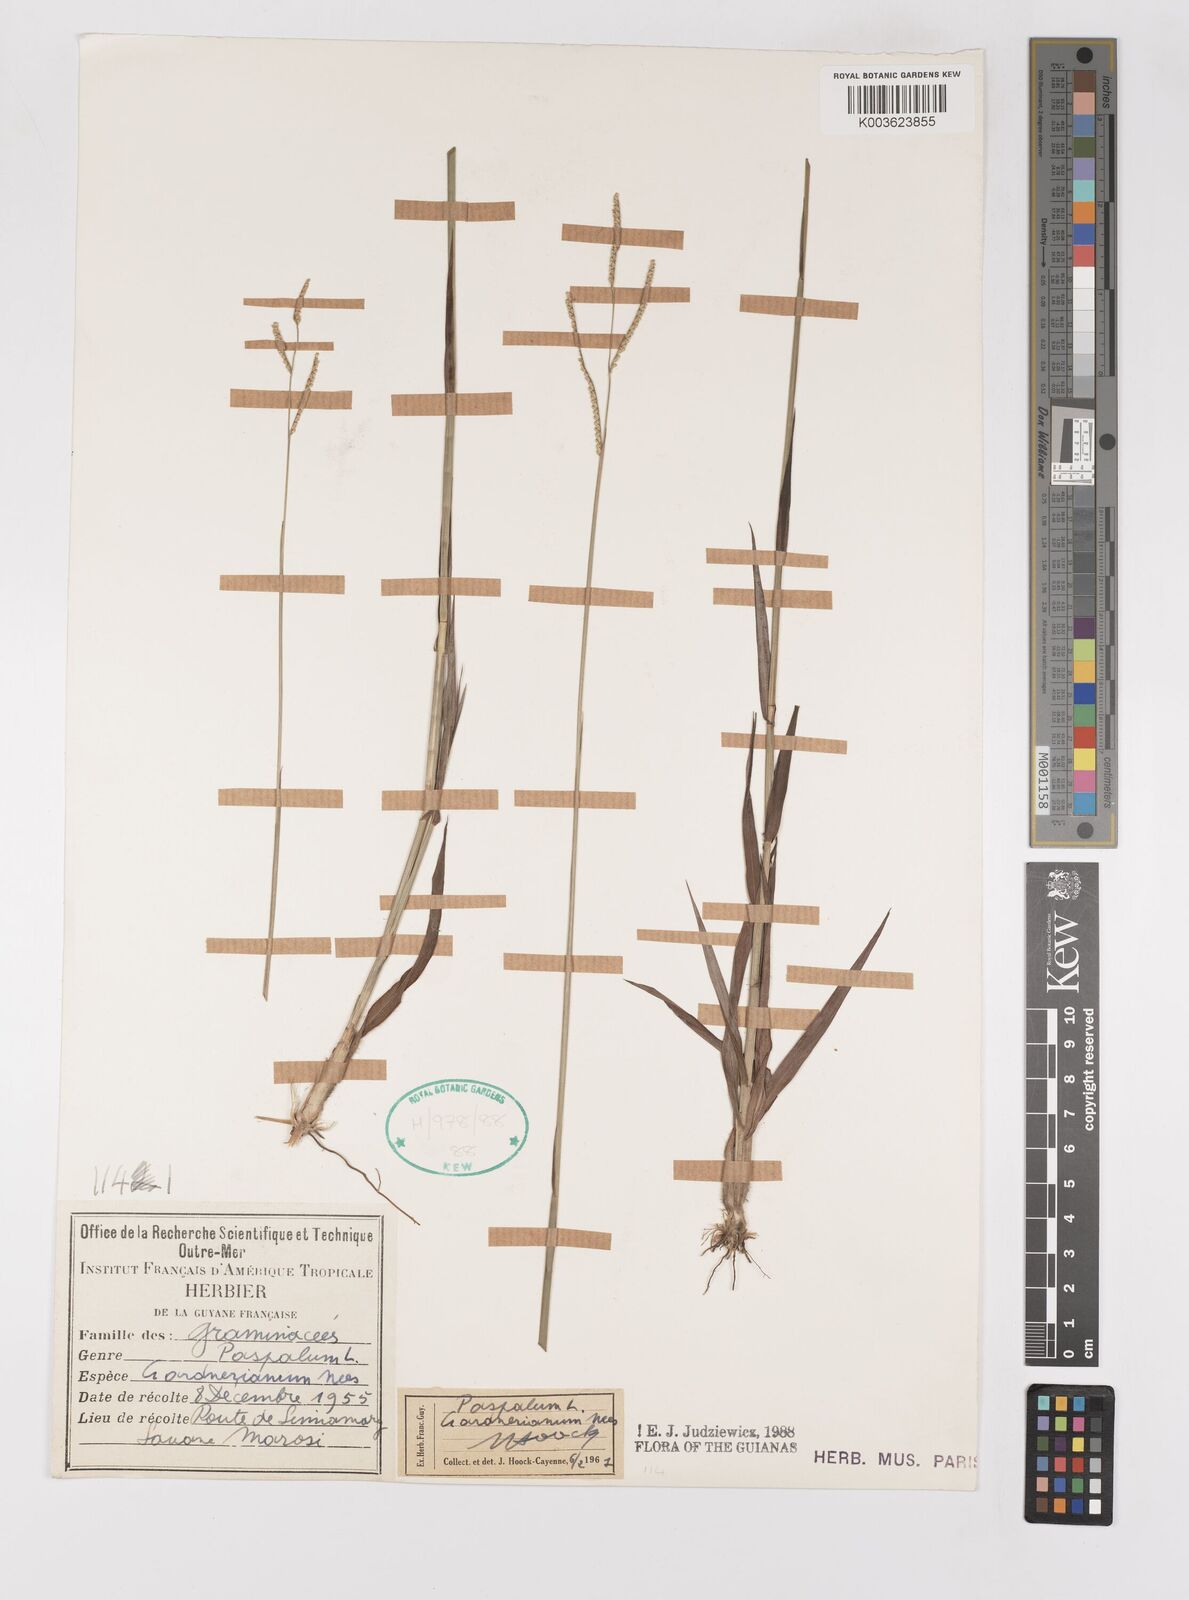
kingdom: Plantae
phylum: Tracheophyta
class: Liliopsida
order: Poales
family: Poaceae
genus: Paspalum
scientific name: Paspalum gardnerianum
